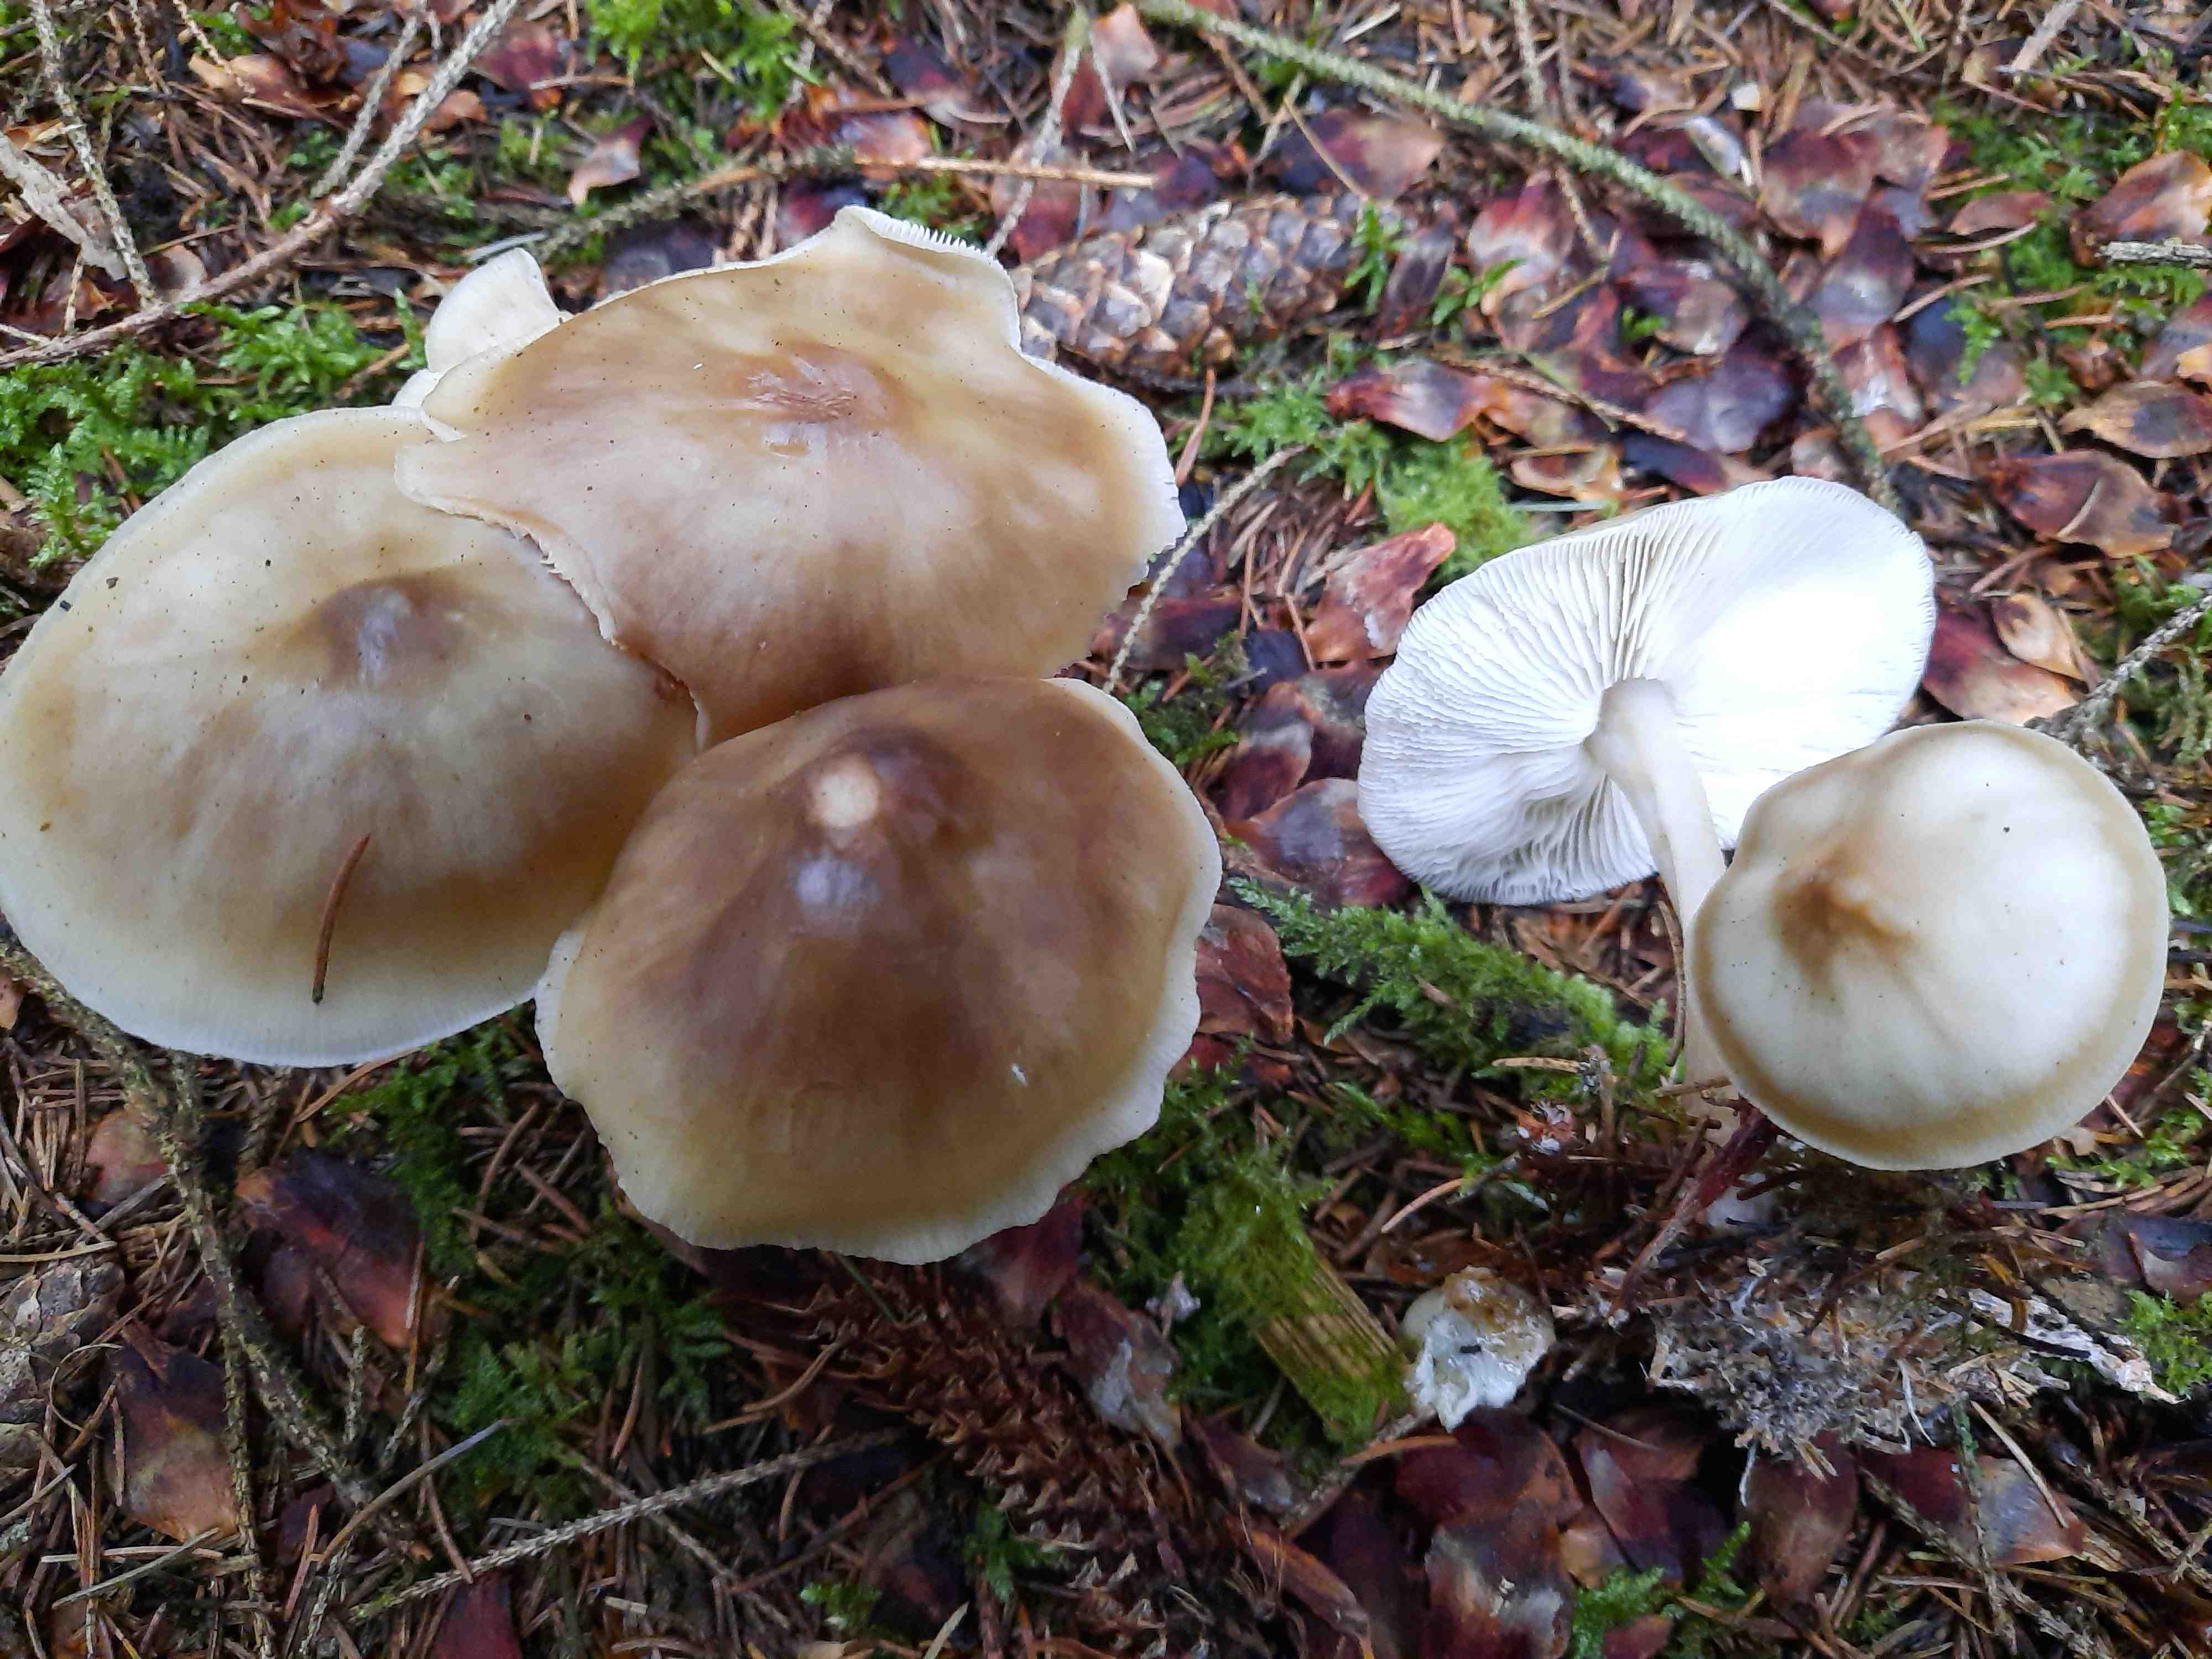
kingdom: Fungi
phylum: Basidiomycota
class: Agaricomycetes
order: Agaricales
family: Omphalotaceae
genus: Rhodocollybia
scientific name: Rhodocollybia asema
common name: horngrå fladhat
